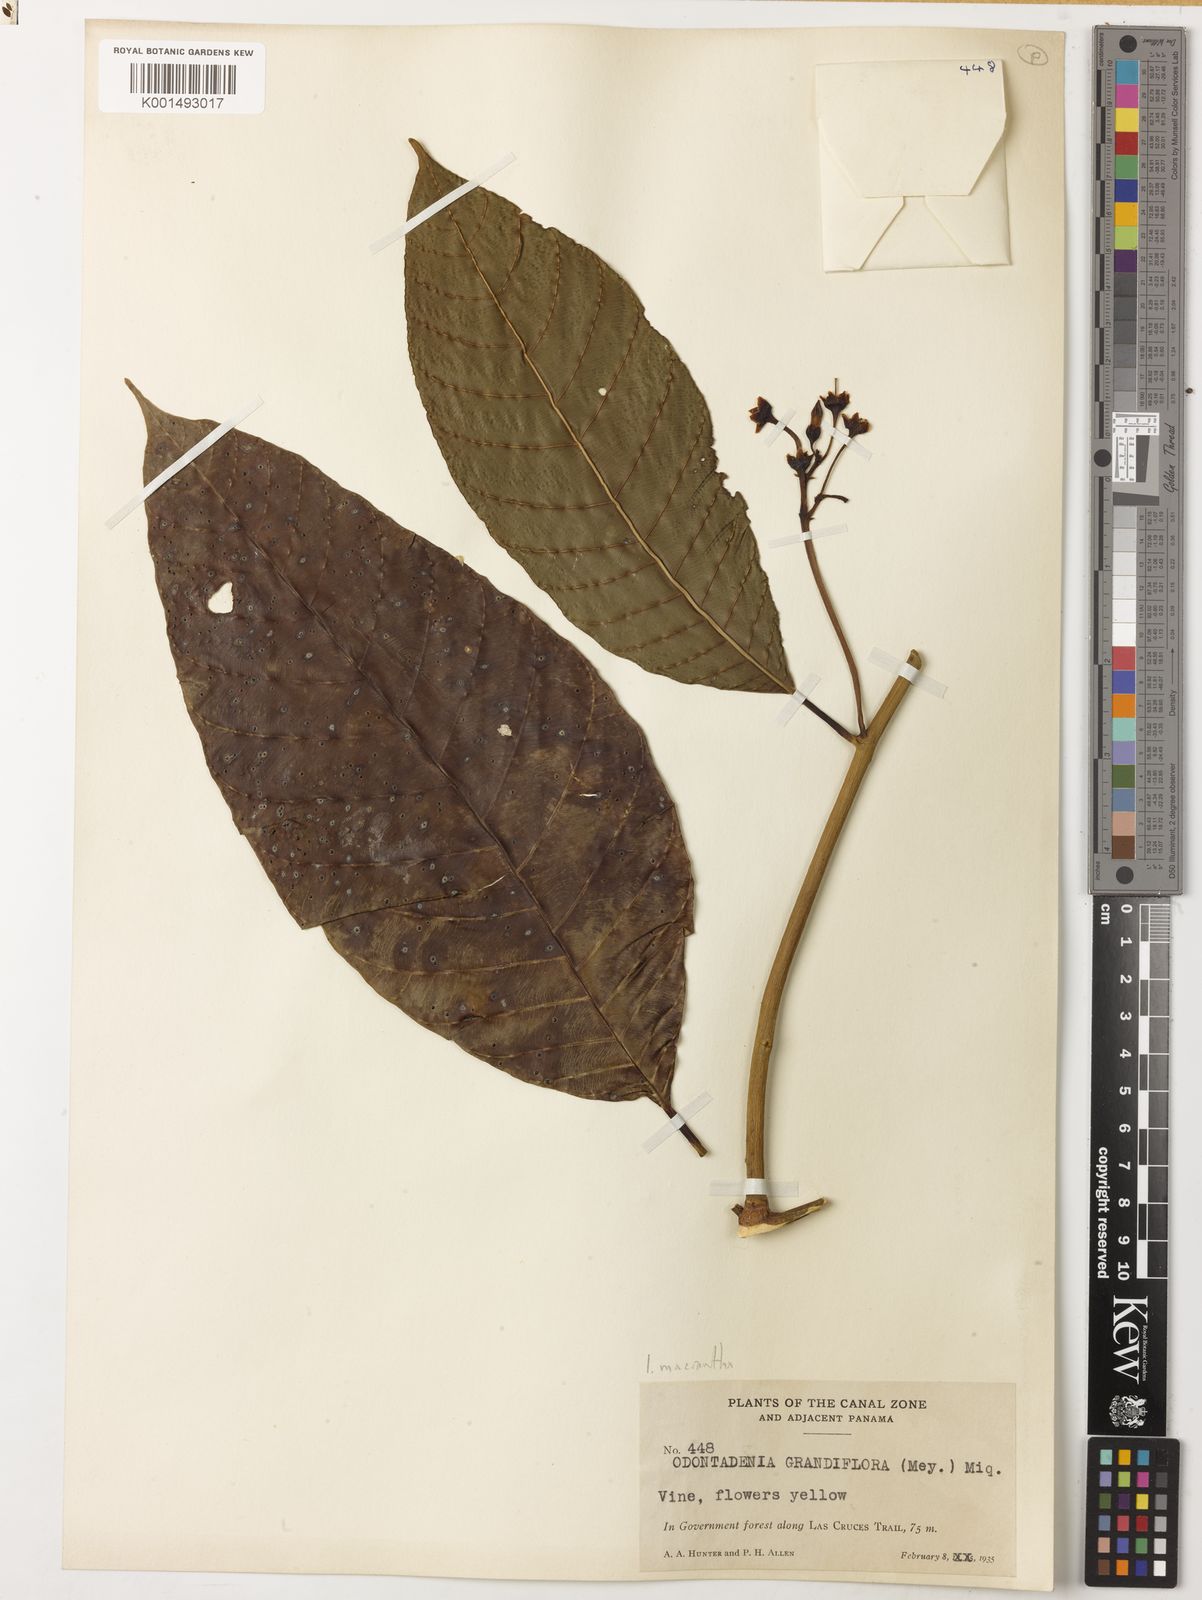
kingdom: Plantae
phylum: Tracheophyta
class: Magnoliopsida
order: Gentianales
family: Apocynaceae
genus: Odontadenia
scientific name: Odontadenia semidigyna
